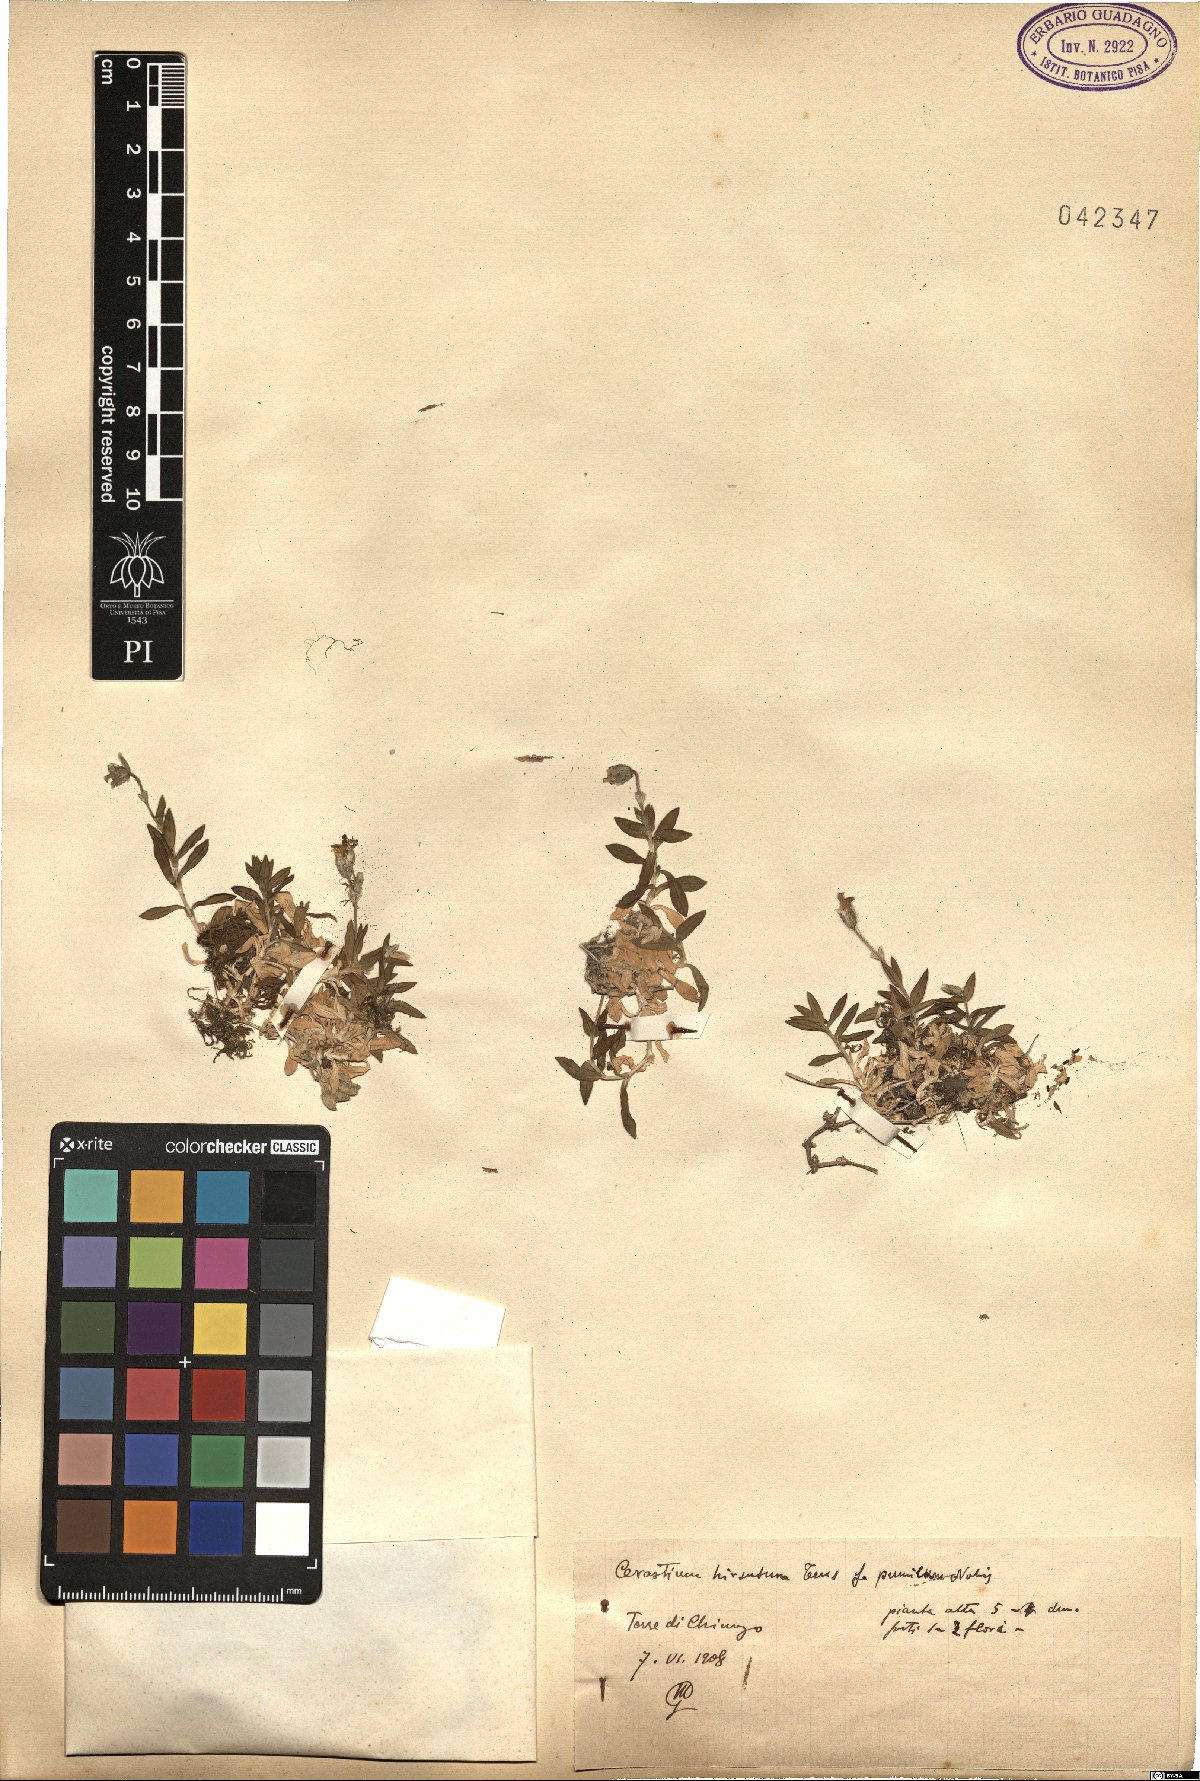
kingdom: Plantae
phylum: Tracheophyta
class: Magnoliopsida
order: Caryophyllales
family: Caryophyllaceae
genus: Cerastium
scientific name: Cerastium
